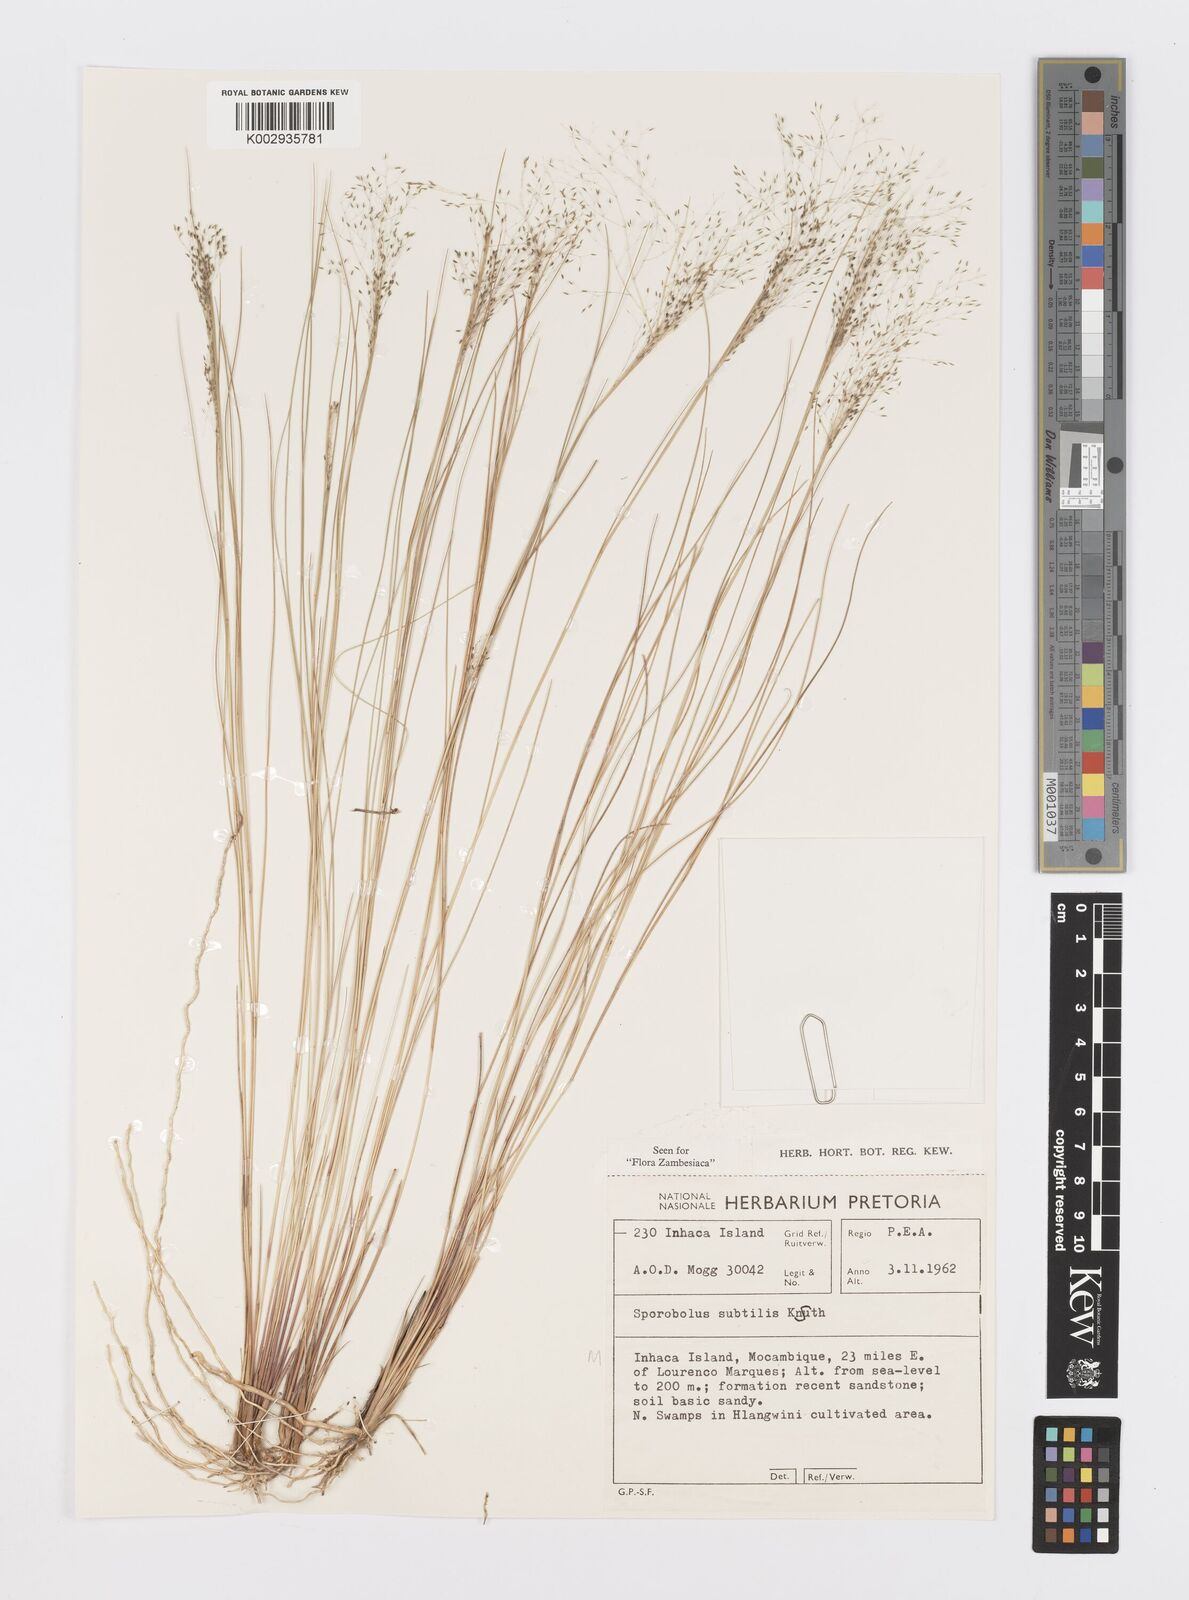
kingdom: Plantae
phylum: Tracheophyta
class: Liliopsida
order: Poales
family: Poaceae
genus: Sporobolus
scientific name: Sporobolus subtilis
